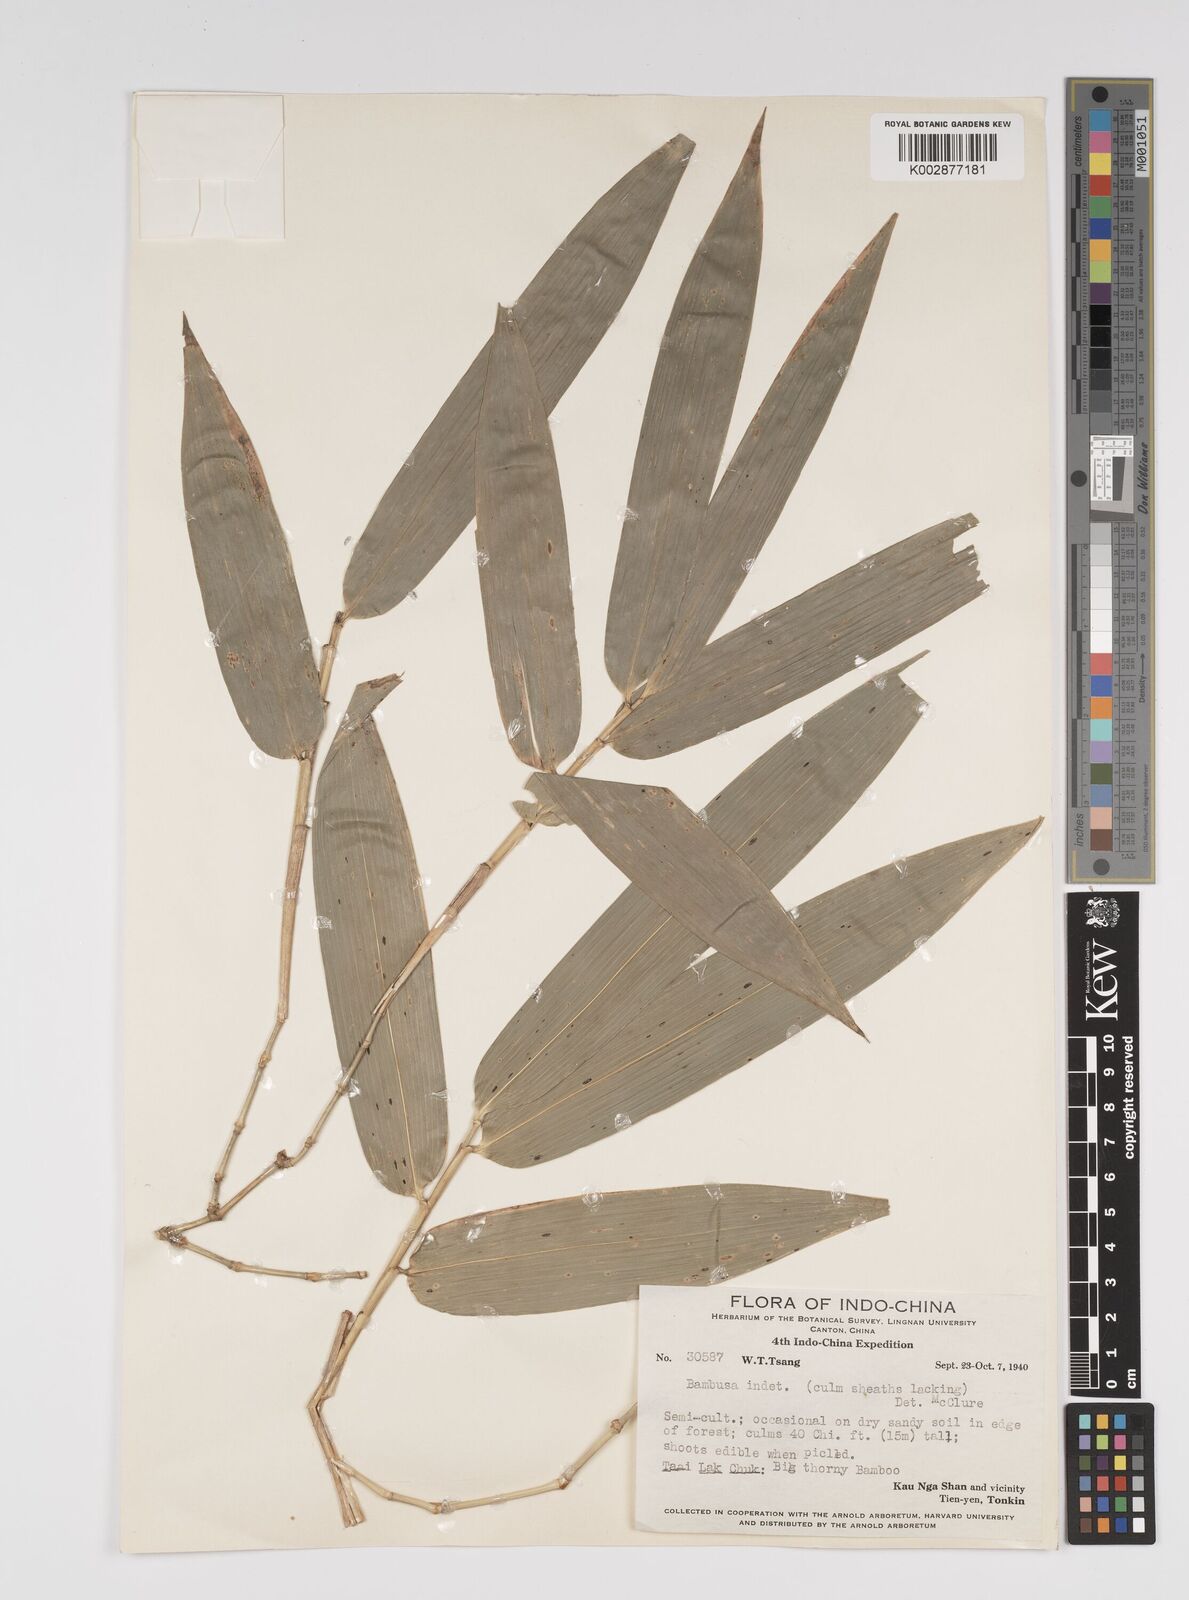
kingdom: Plantae
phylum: Tracheophyta
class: Liliopsida
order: Poales
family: Poaceae
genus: Bambusa
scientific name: Bambusa
